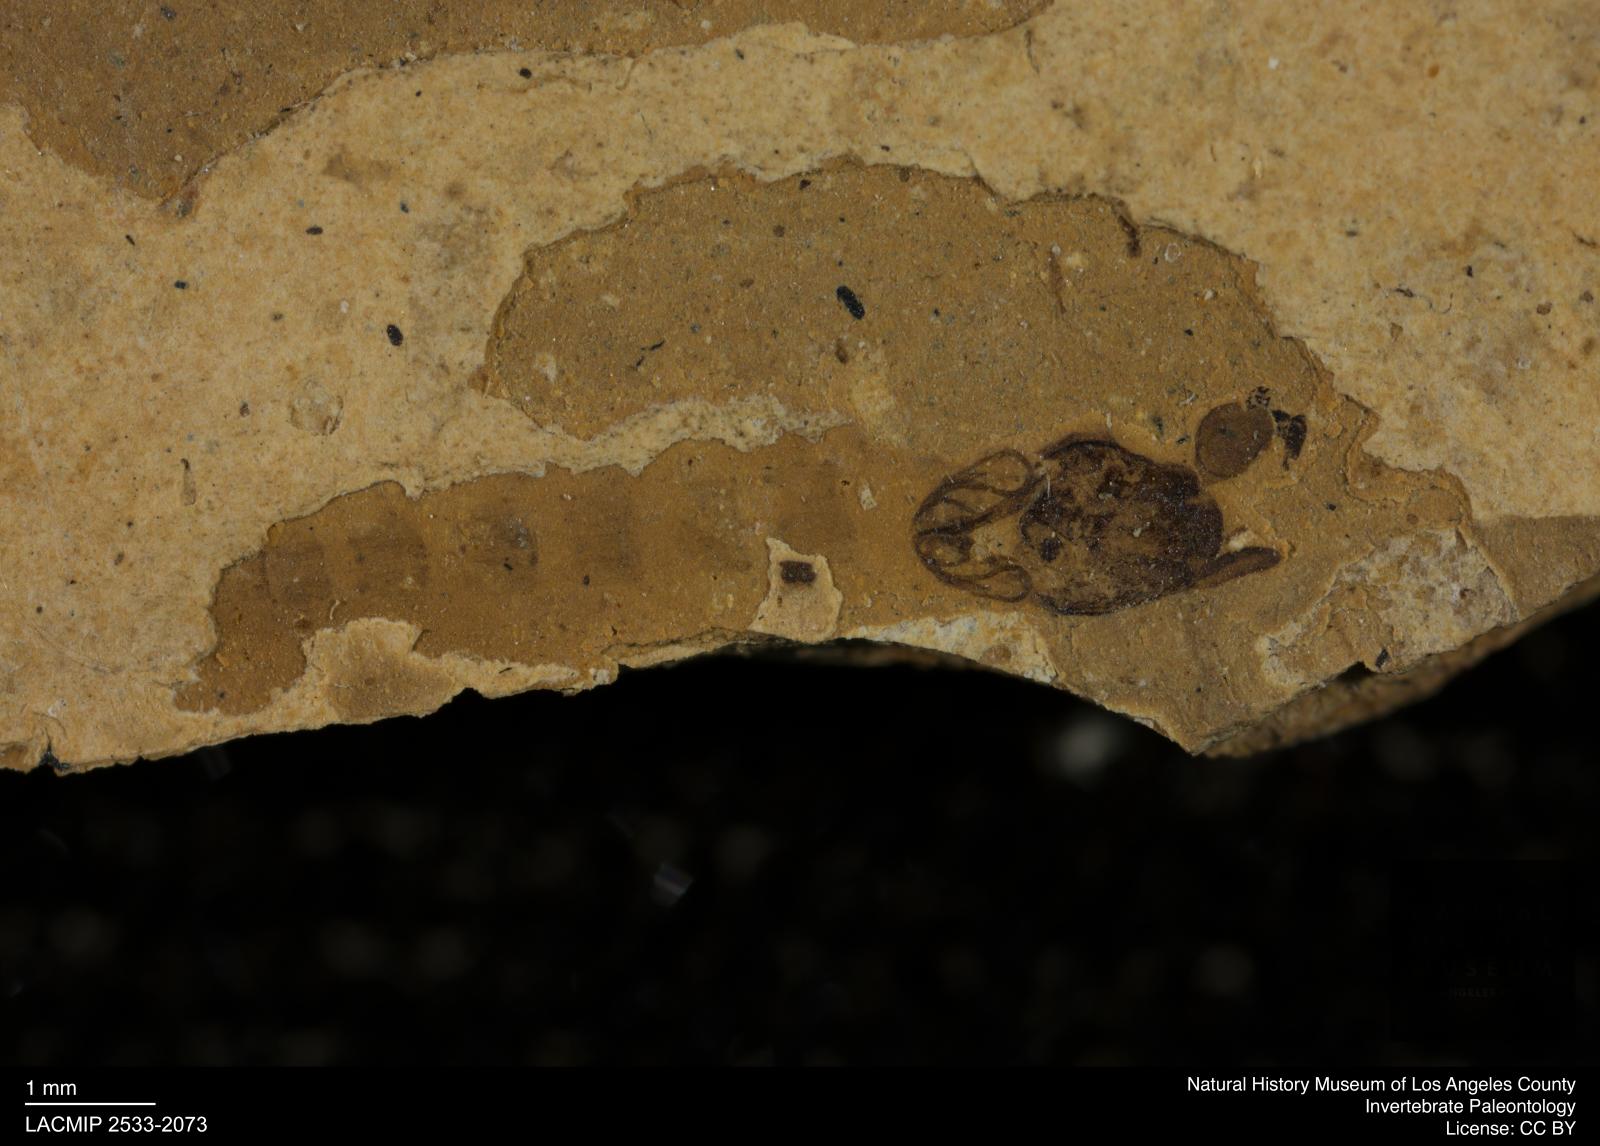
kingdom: Animalia
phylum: Arthropoda
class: Insecta
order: Diptera
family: Chironomidae
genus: Pelopiina
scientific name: Pelopiina
